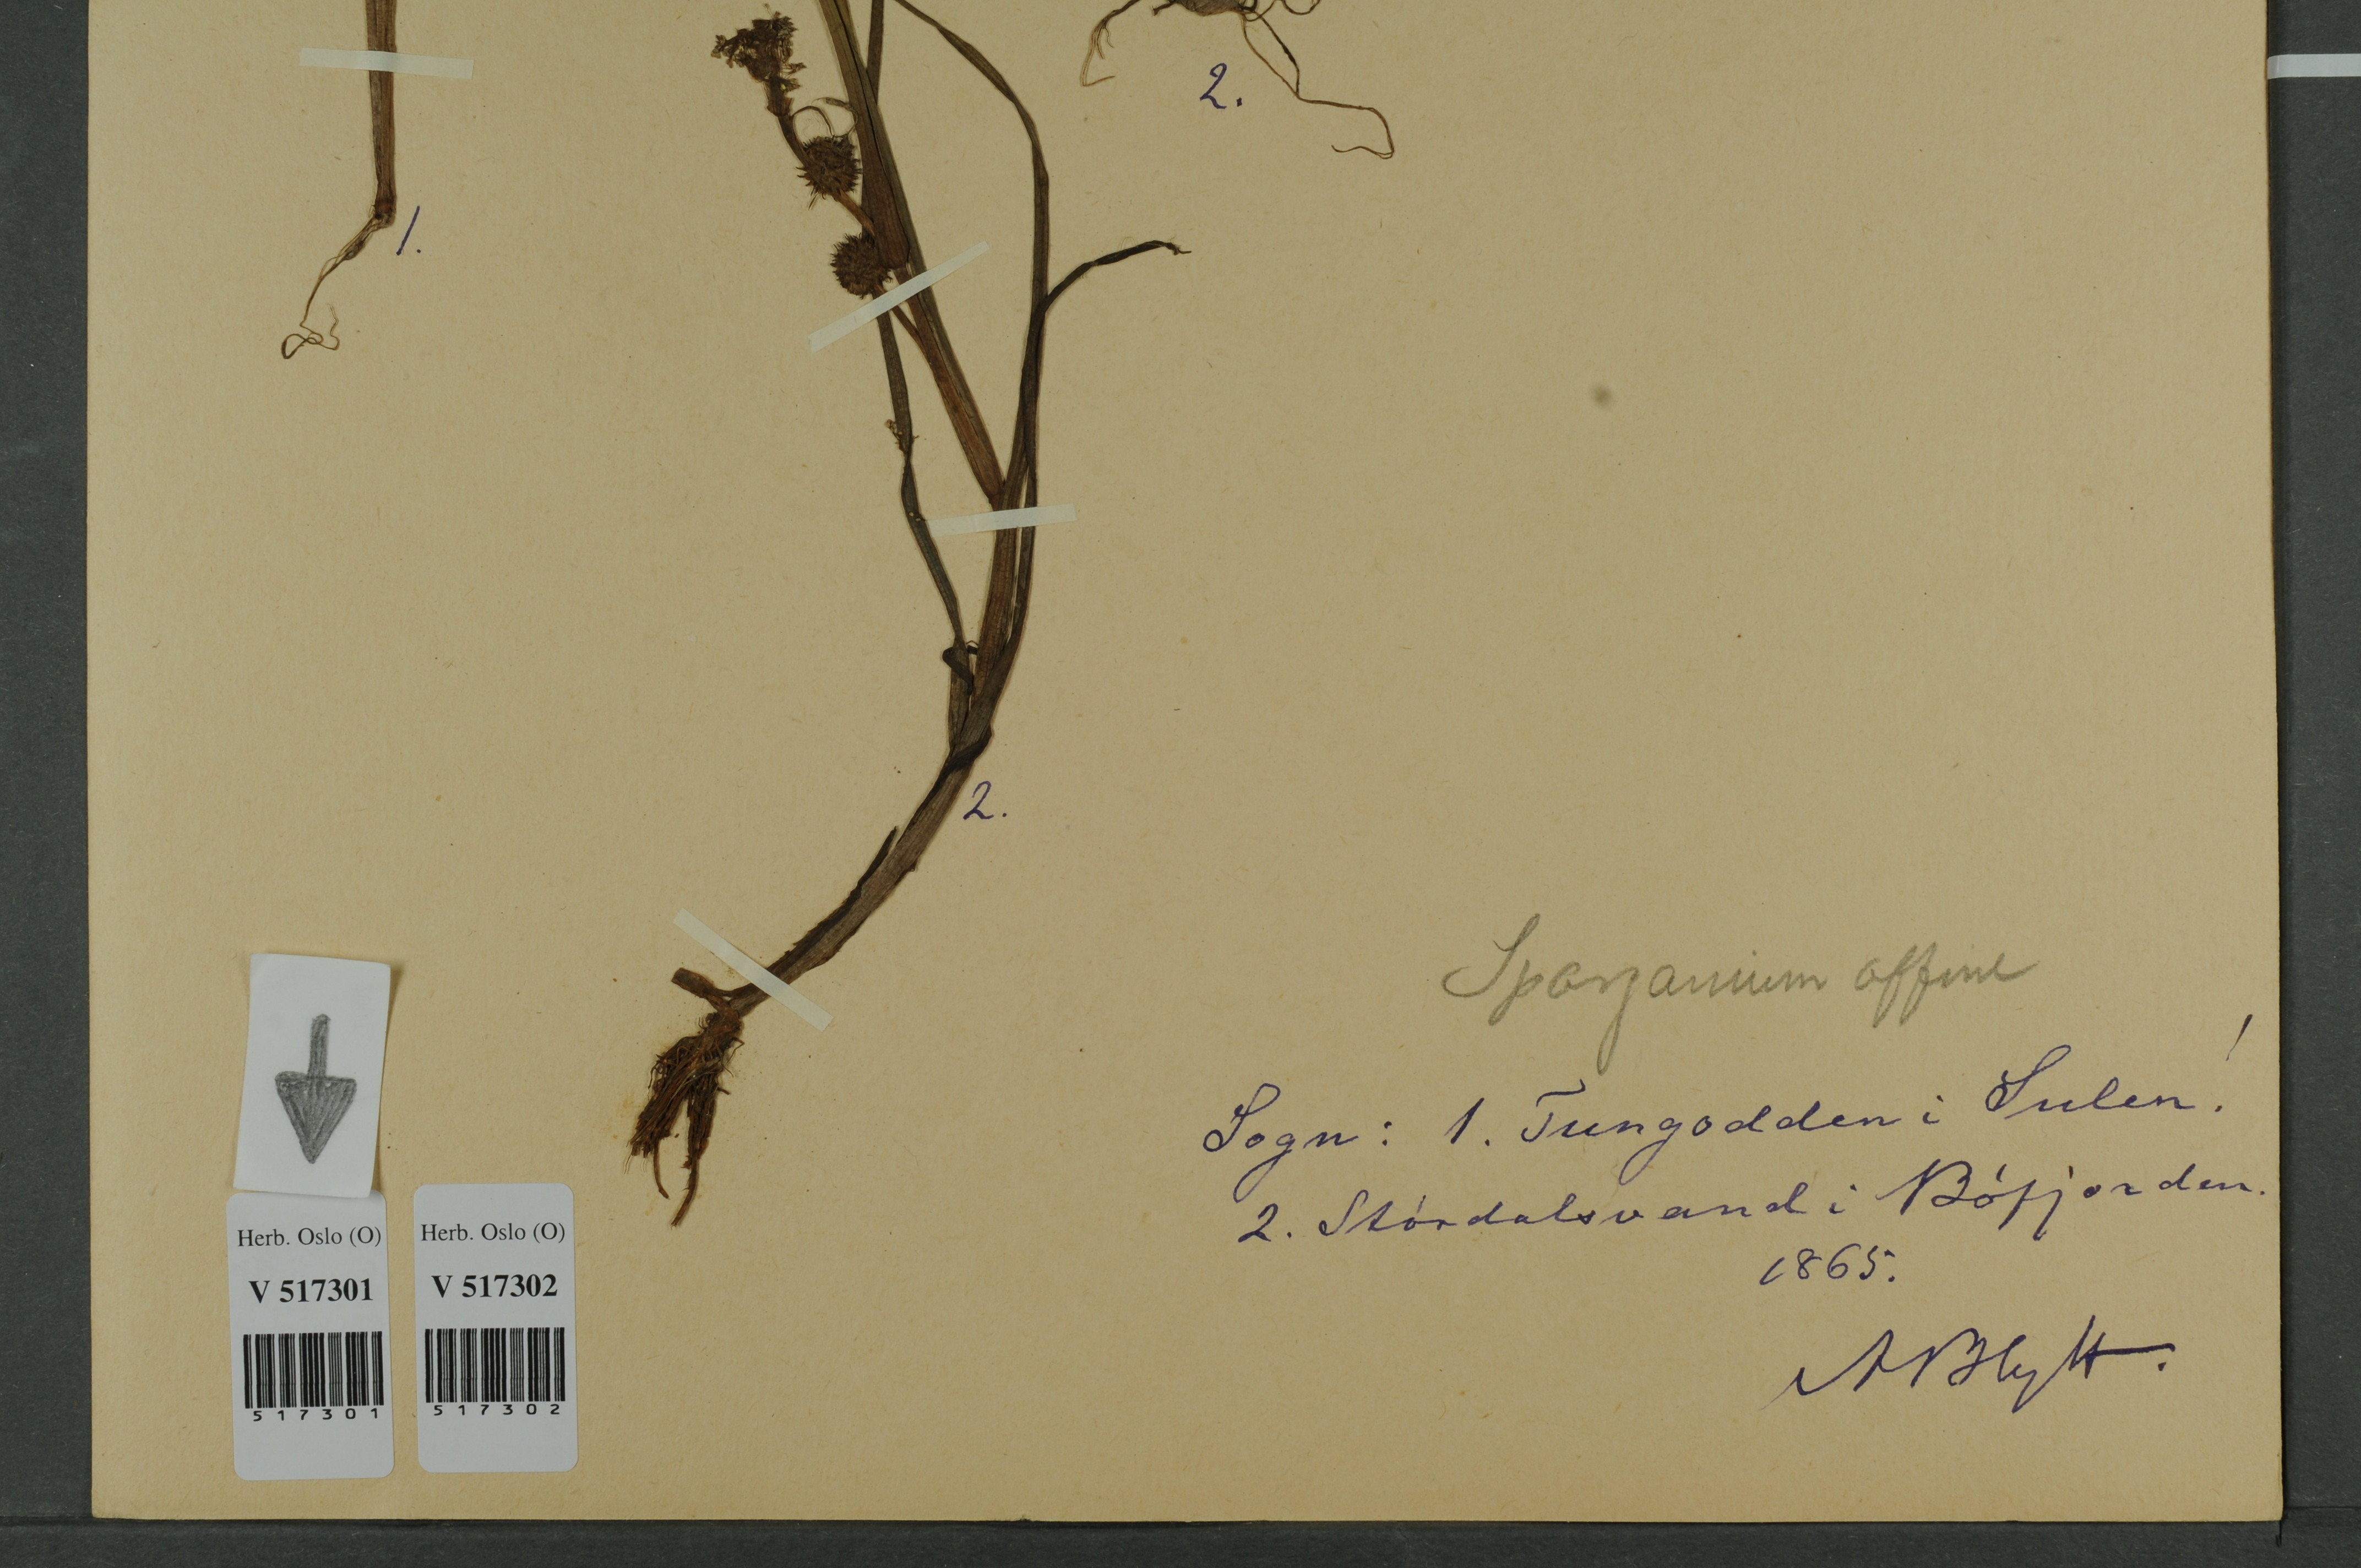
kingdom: Plantae
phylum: Tracheophyta
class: Liliopsida
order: Poales
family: Typhaceae
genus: Sparganium
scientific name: Sparganium angustifolium
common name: Floating bur-reed
